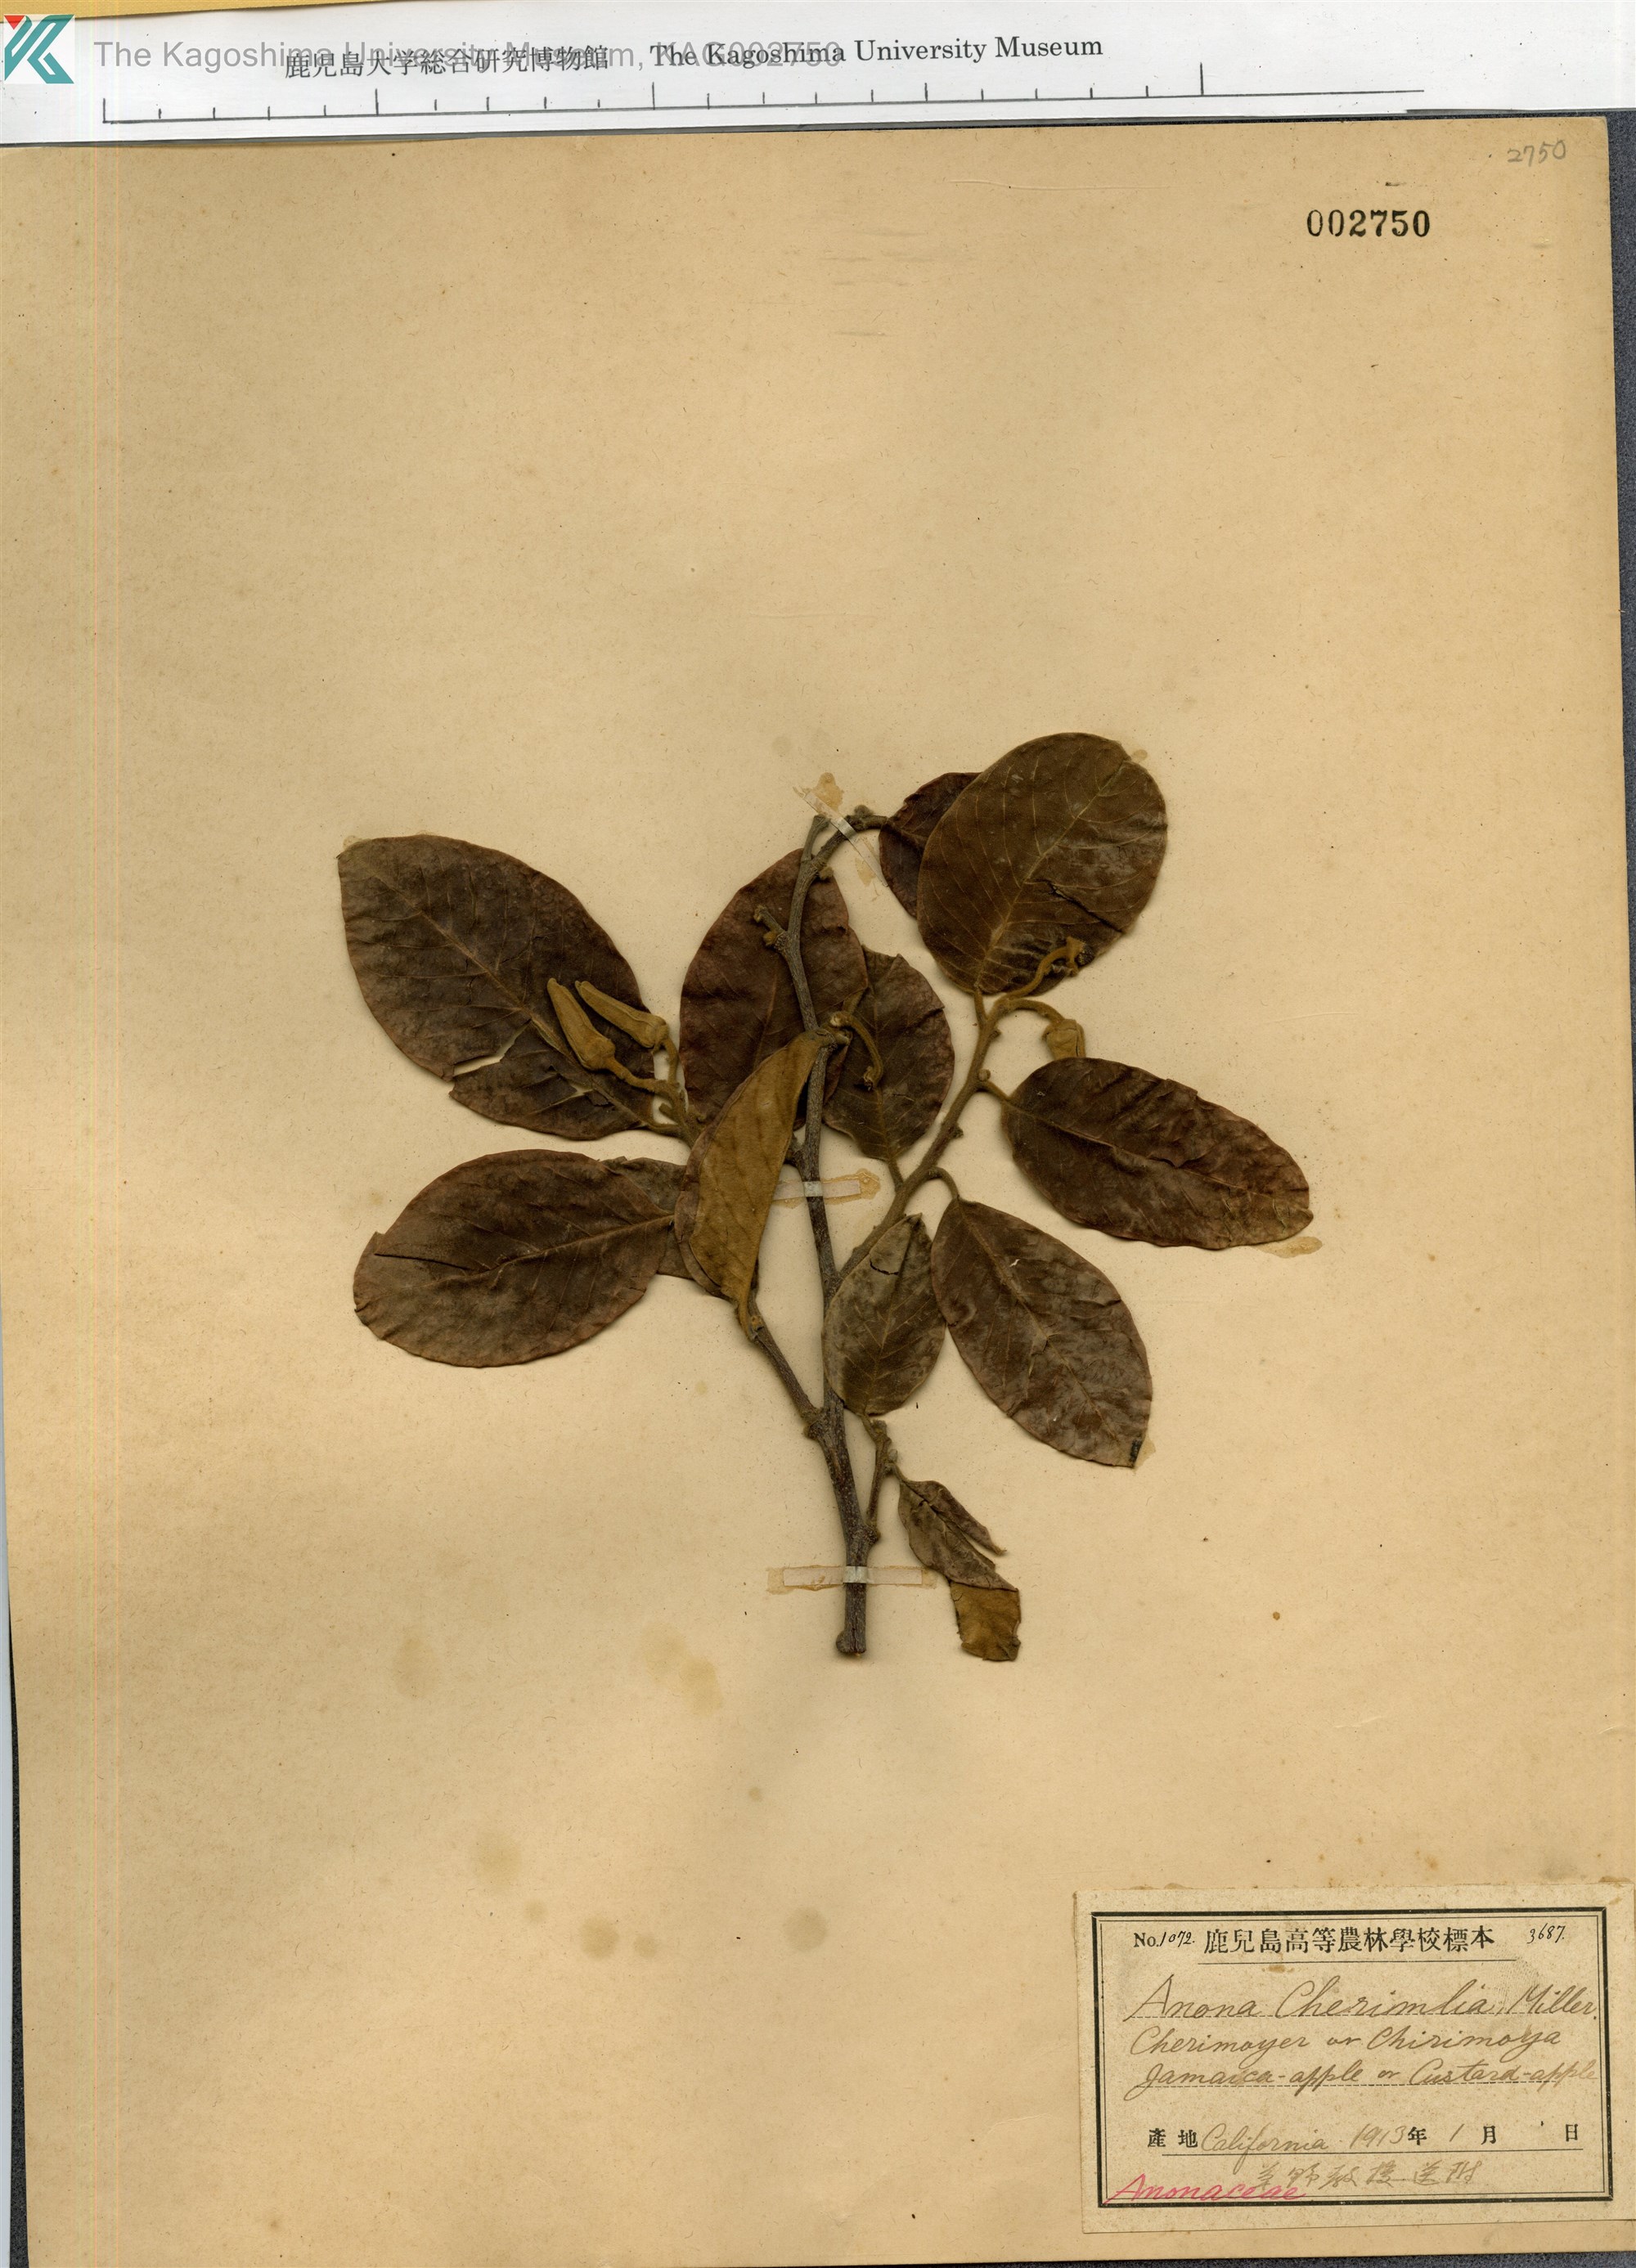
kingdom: Plantae
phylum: Tracheophyta
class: Magnoliopsida
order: Magnoliales
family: Annonaceae
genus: Annona
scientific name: Annona cherimola
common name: Cherimoya
